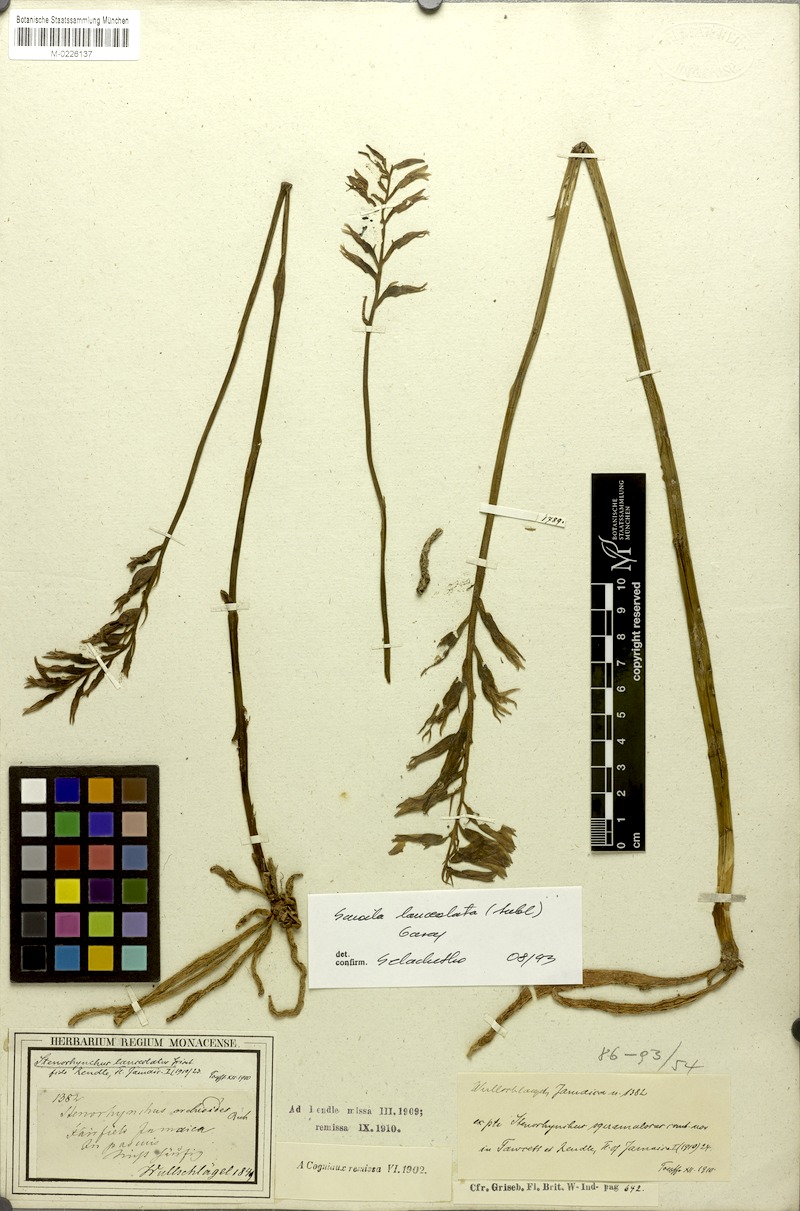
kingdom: Plantae
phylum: Tracheophyta
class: Liliopsida
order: Asparagales
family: Orchidaceae
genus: Sacoila
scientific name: Sacoila lanceolata
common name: Leafless beaked ladiestresses
